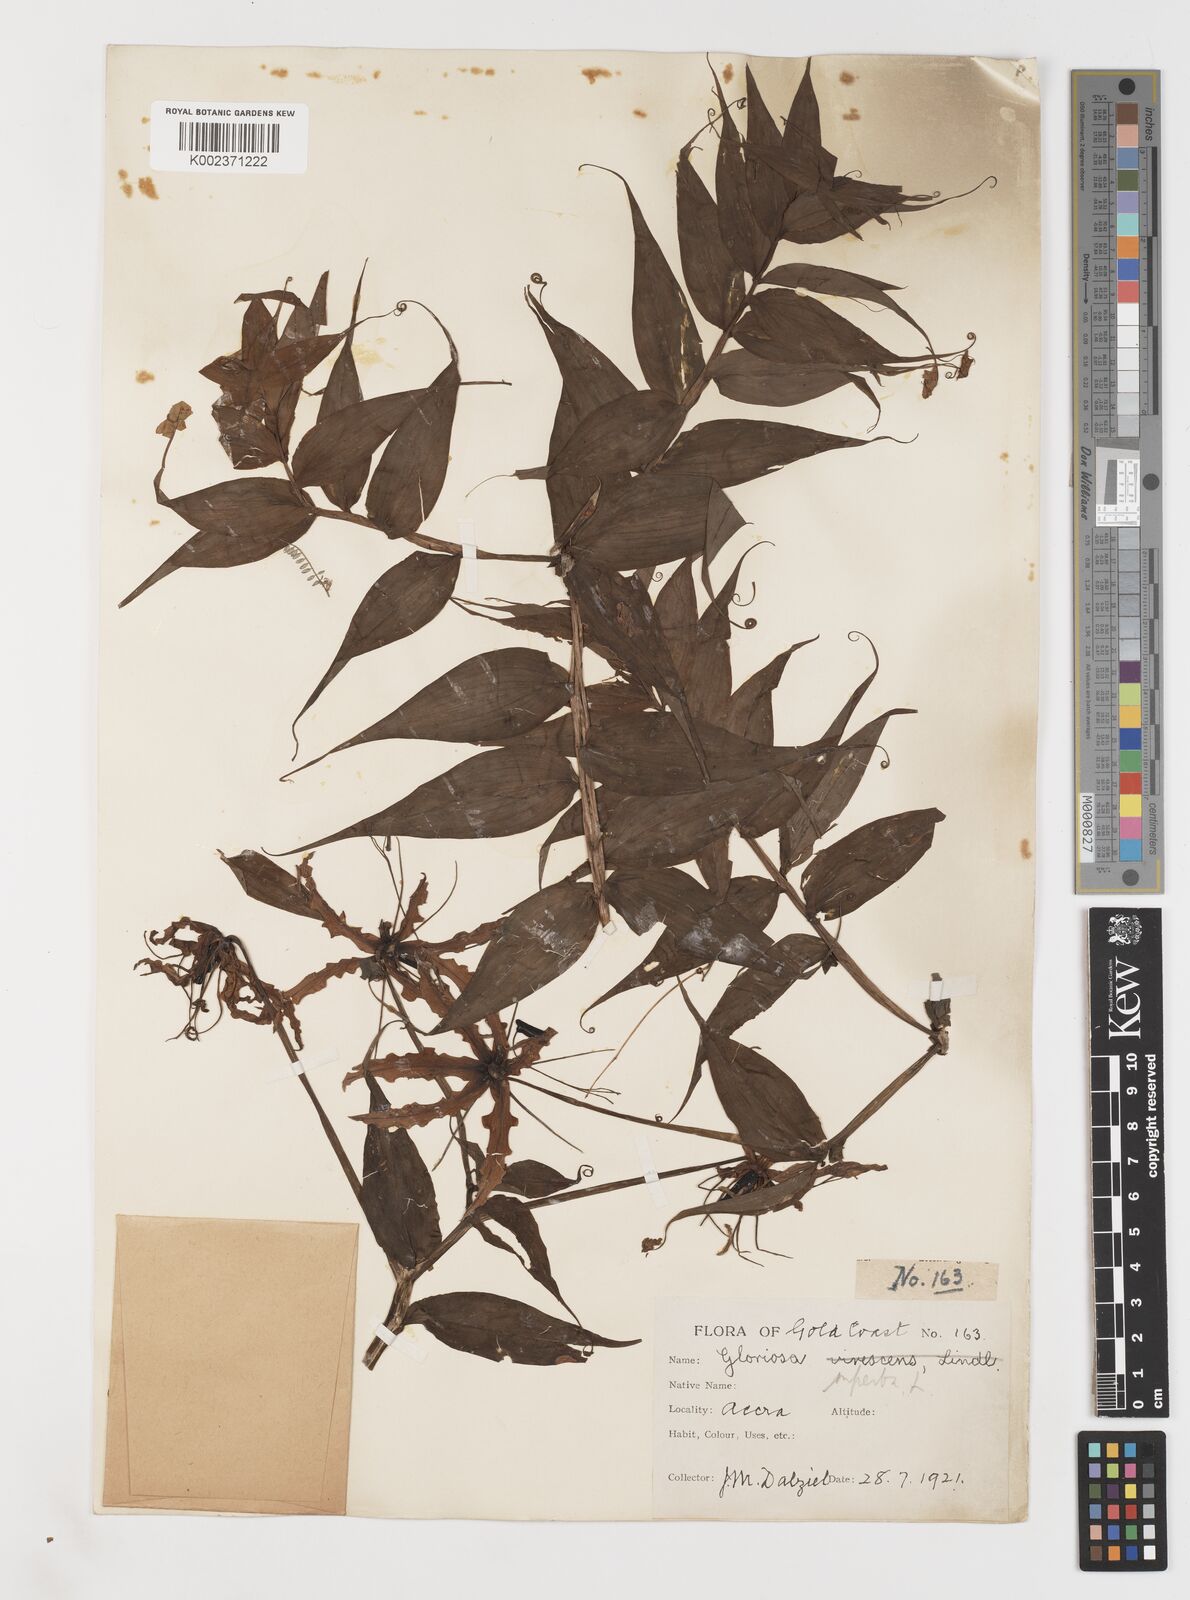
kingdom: Plantae
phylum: Tracheophyta
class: Liliopsida
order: Liliales
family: Colchicaceae
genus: Gloriosa
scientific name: Gloriosa superba
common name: Flame lily
